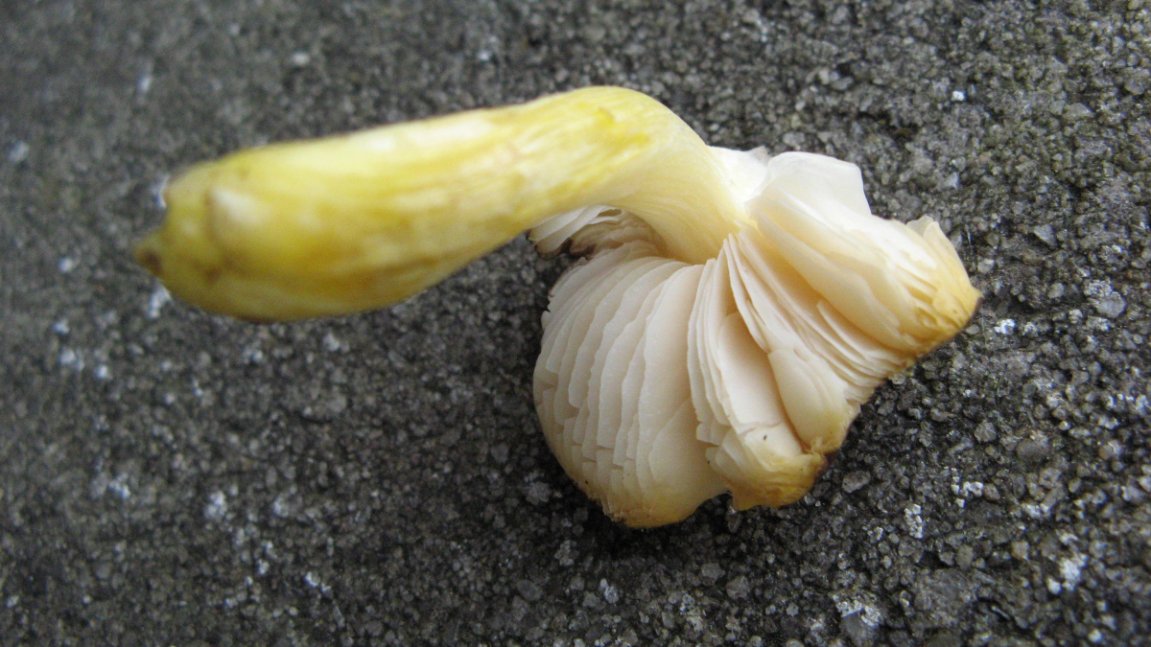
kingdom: Fungi
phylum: Basidiomycota
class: Agaricomycetes
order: Agaricales
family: Pluteaceae
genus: Pluteus
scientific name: Pluteus romellii
